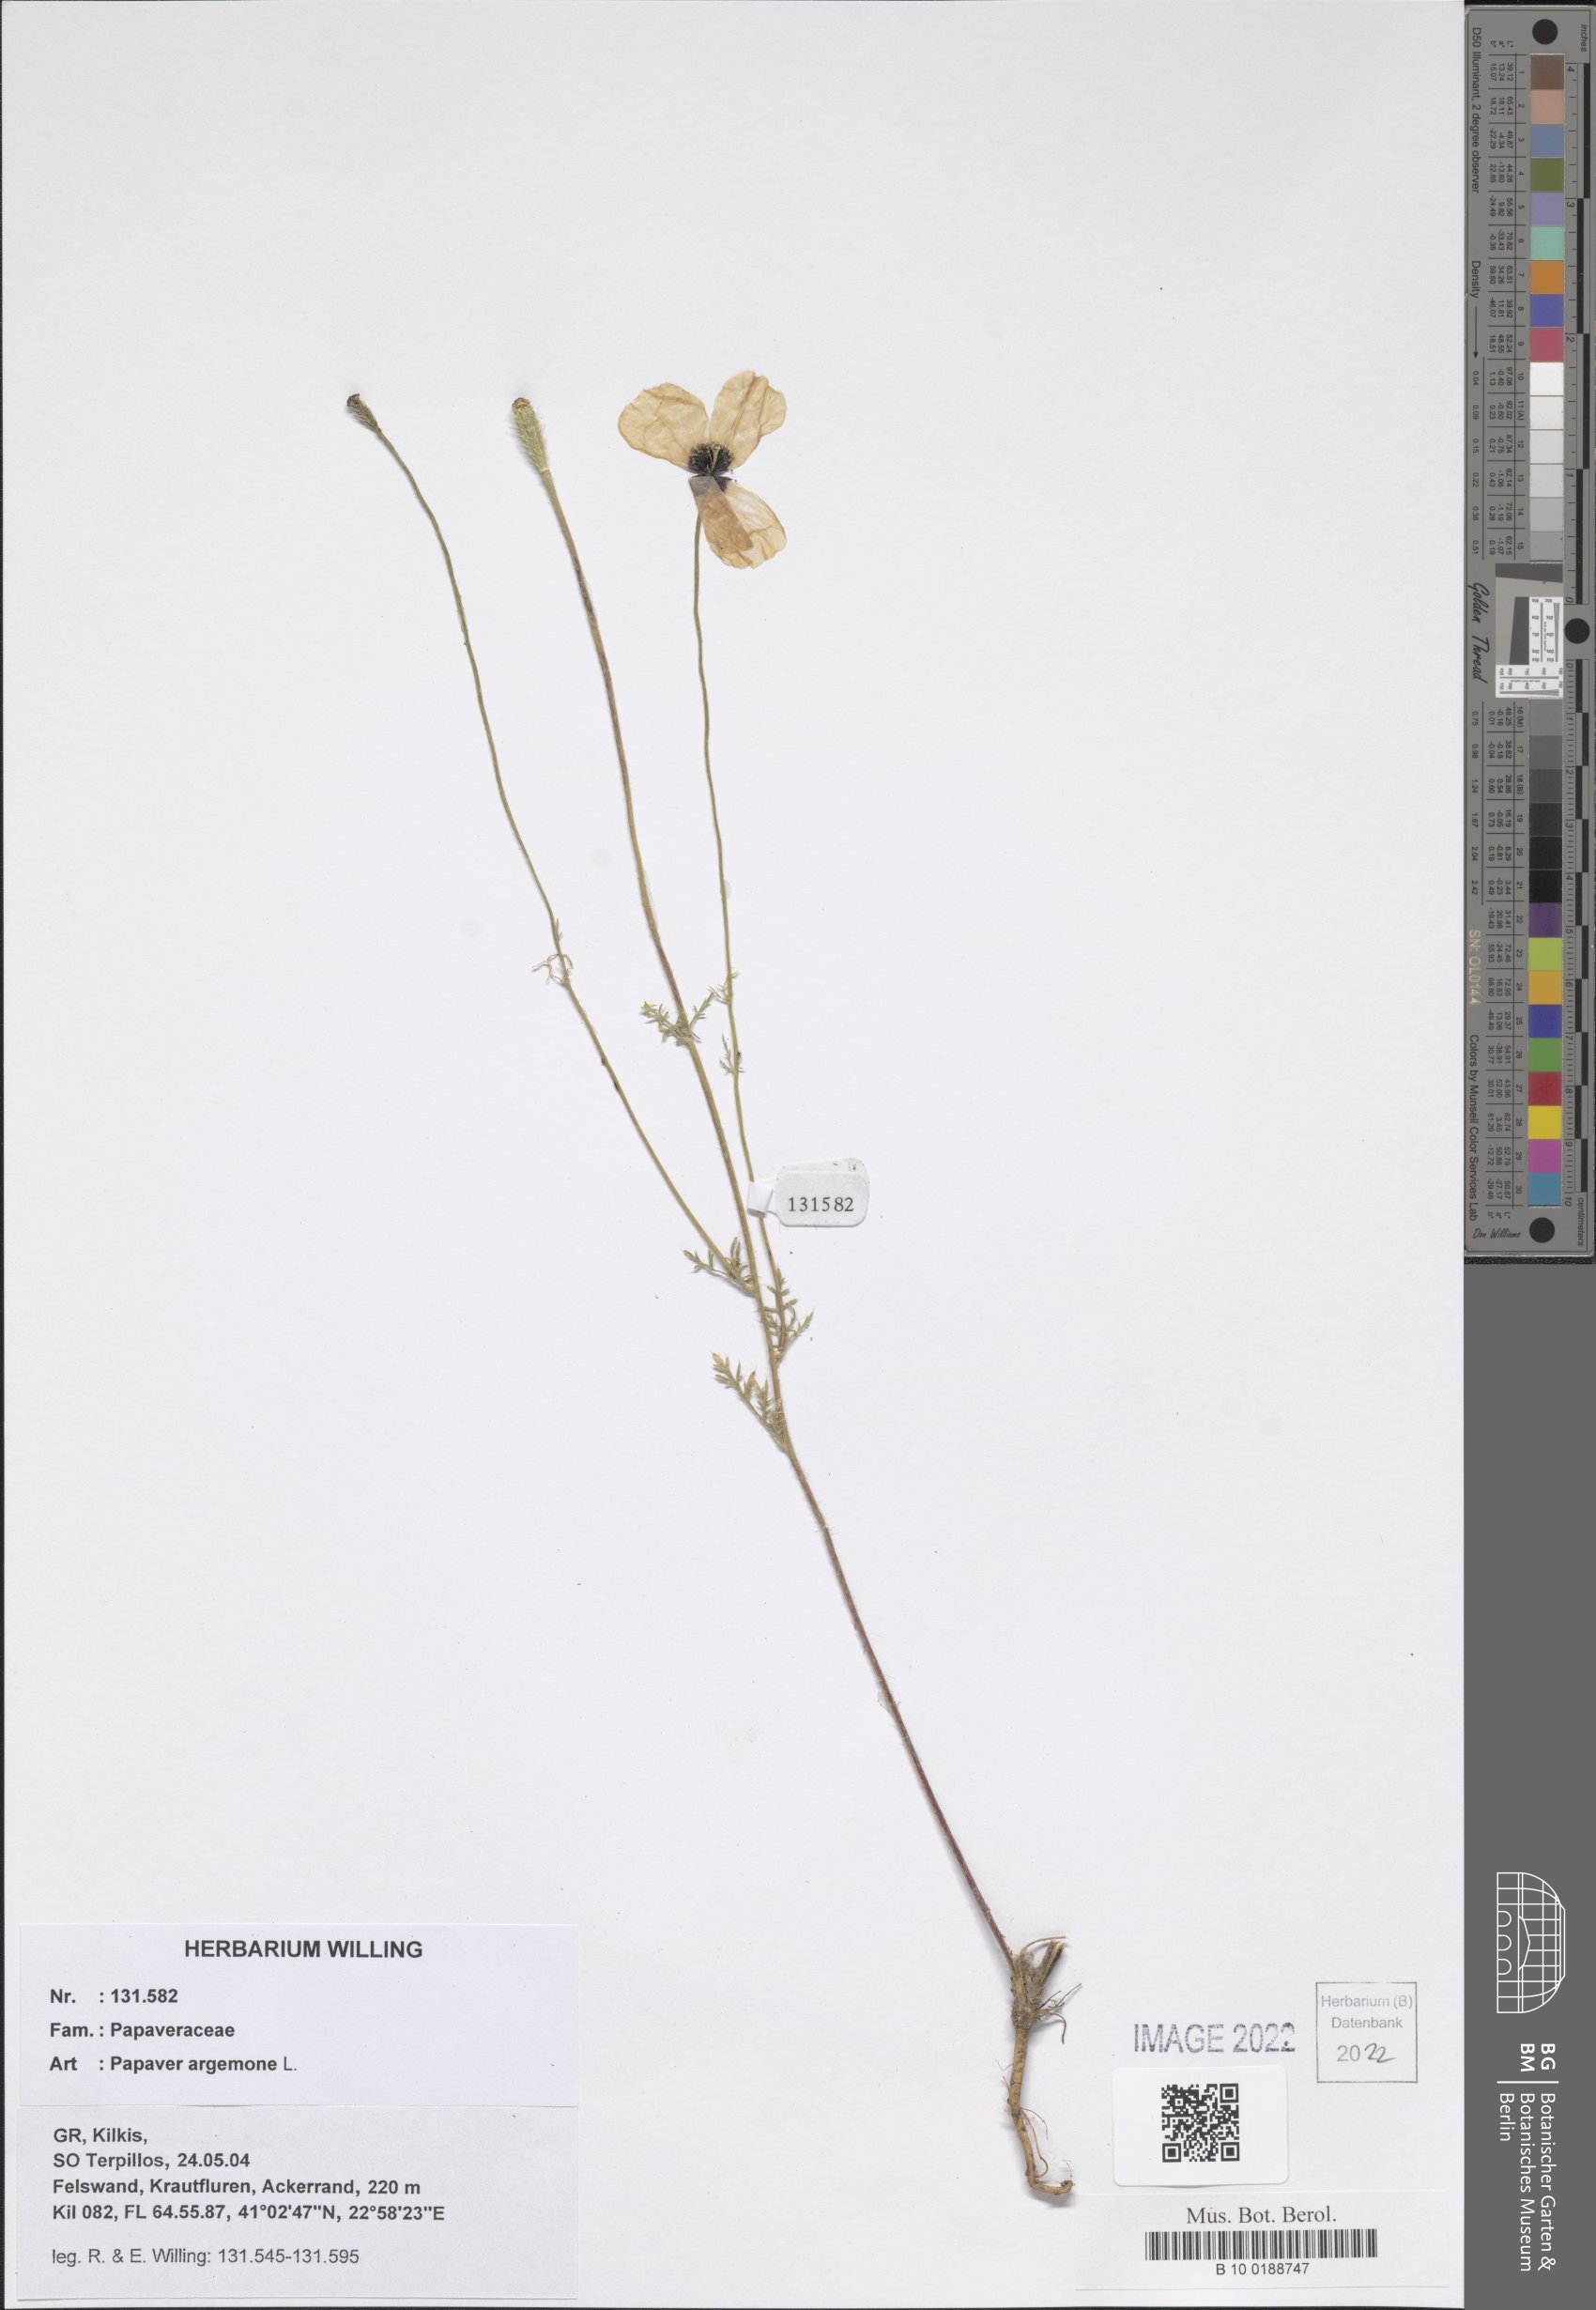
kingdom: Plantae
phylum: Tracheophyta
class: Magnoliopsida
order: Ranunculales
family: Papaveraceae
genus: Roemeria
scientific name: Roemeria argemone
